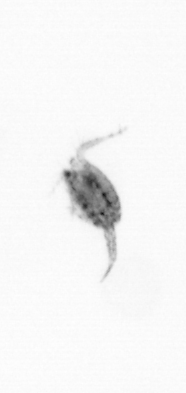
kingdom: Animalia
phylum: Arthropoda
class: Copepoda
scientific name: Copepoda
